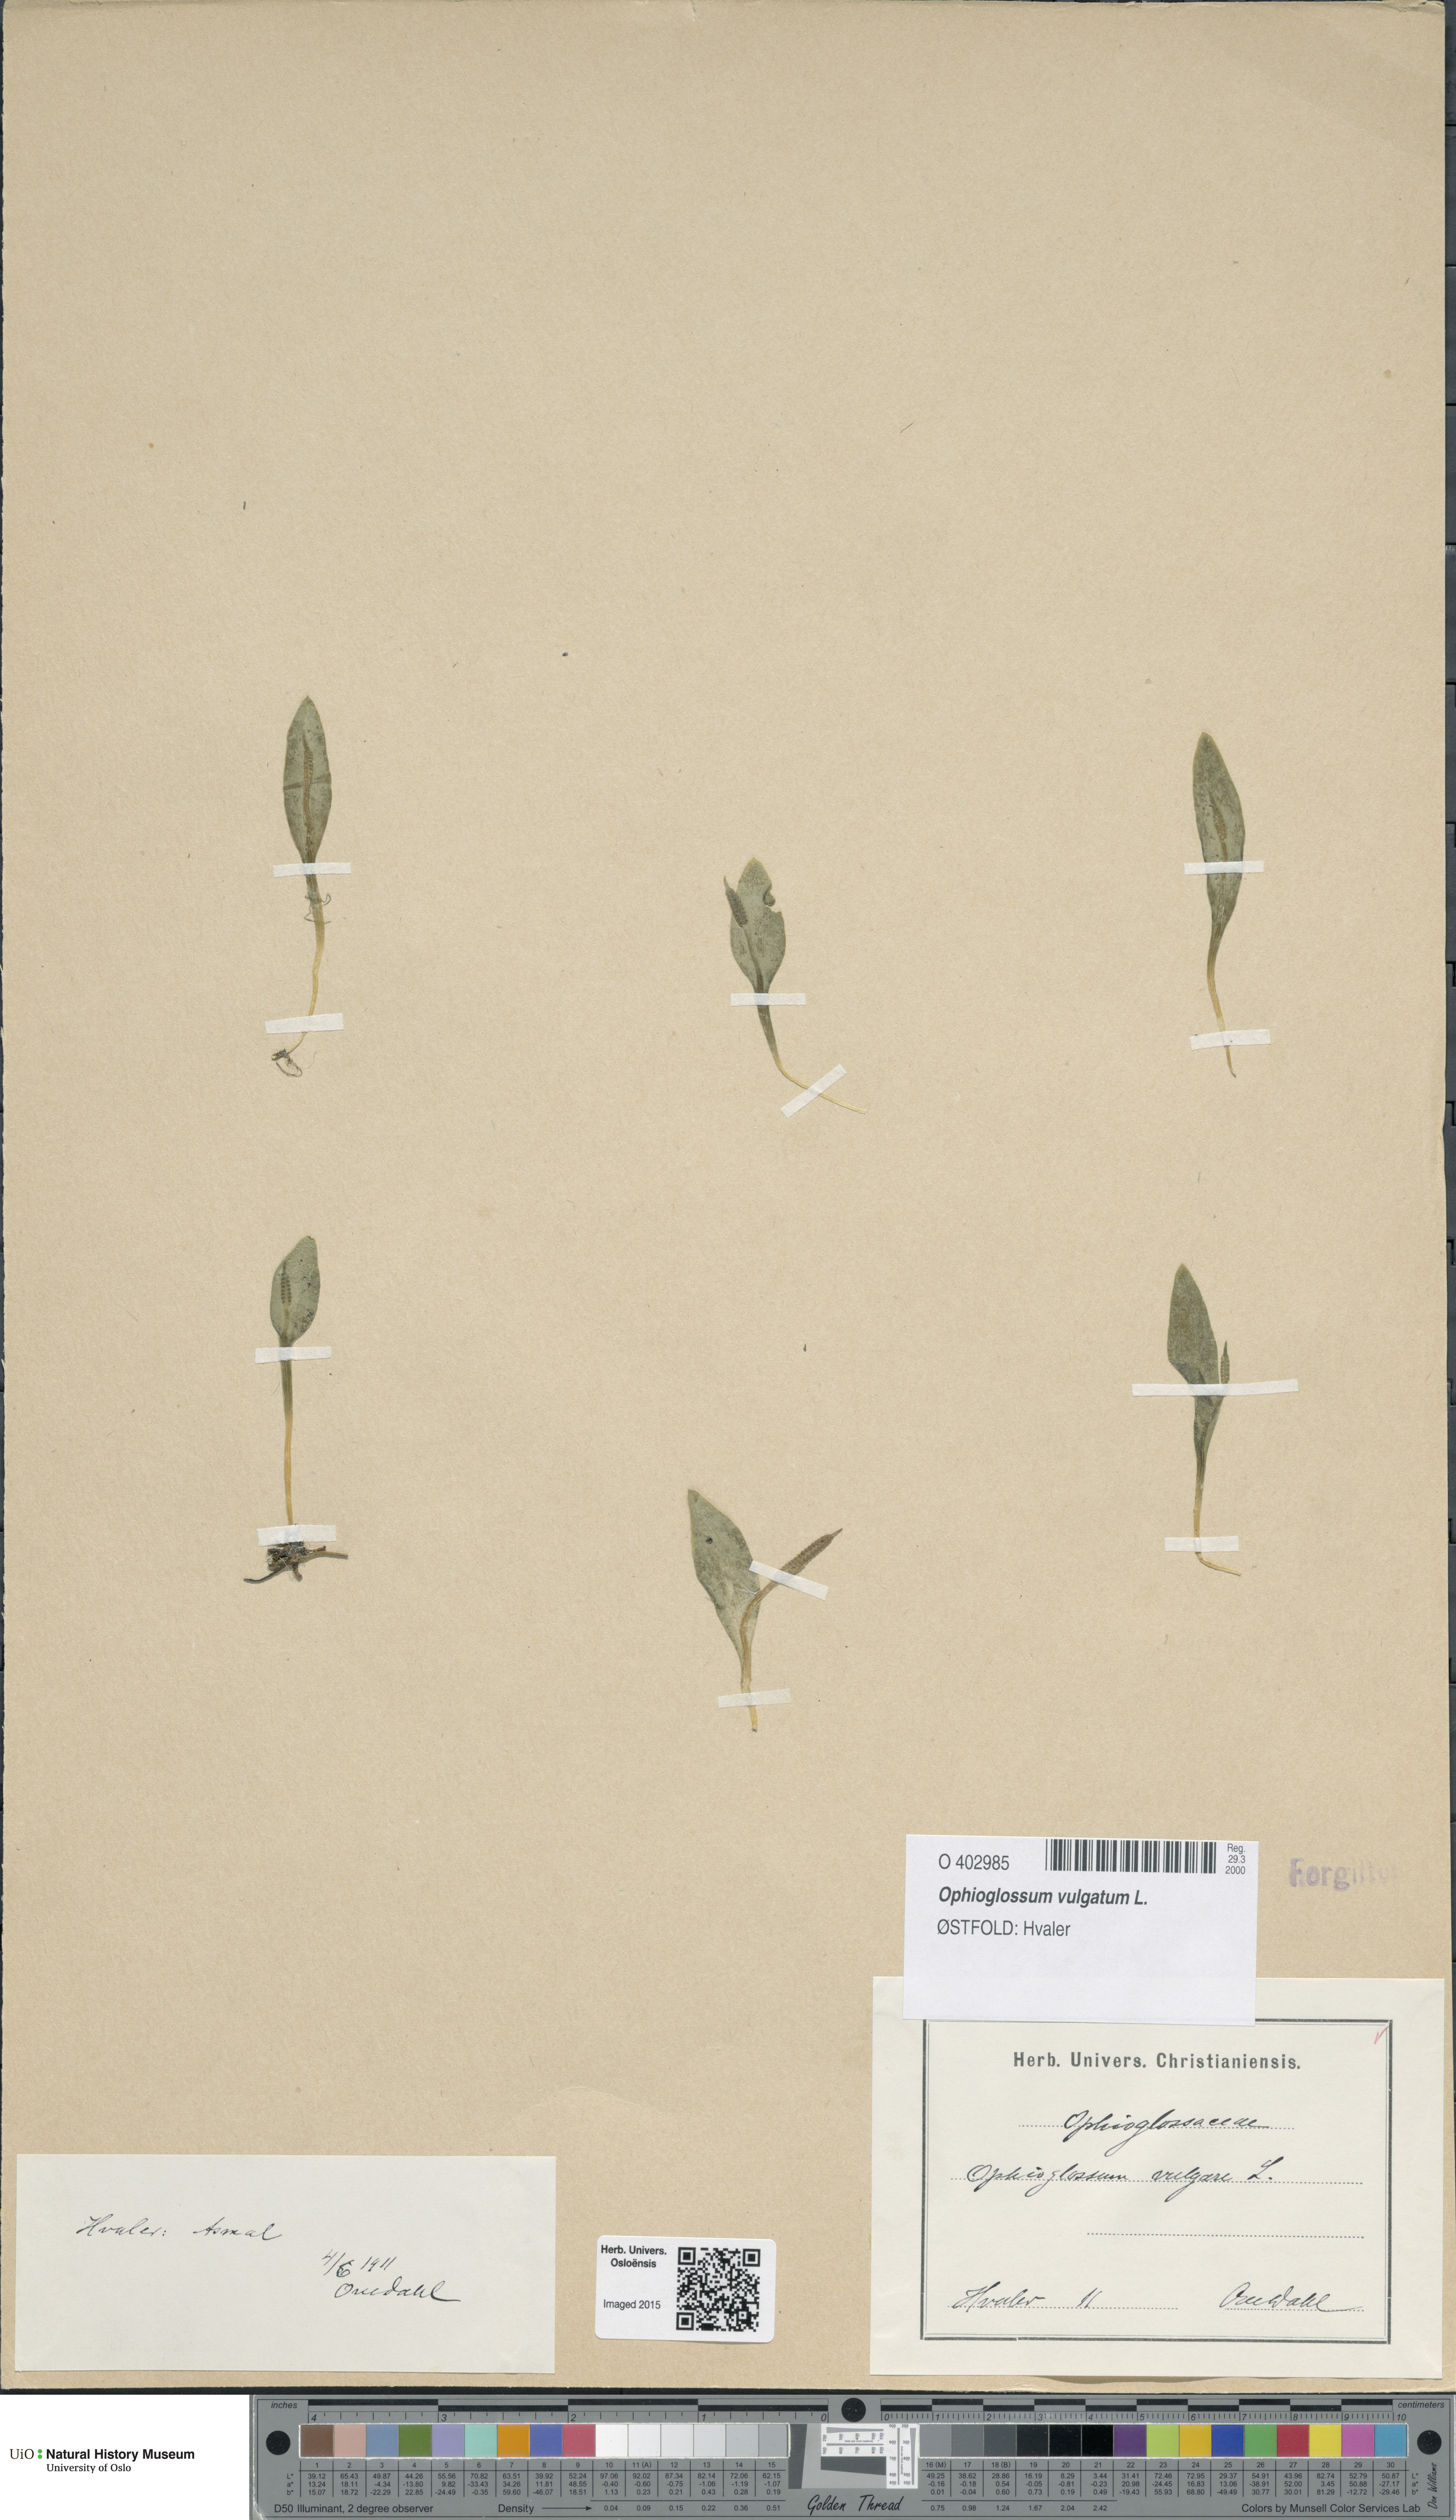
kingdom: Plantae
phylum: Tracheophyta
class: Polypodiopsida
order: Ophioglossales
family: Ophioglossaceae
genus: Ophioglossum
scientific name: Ophioglossum vulgatum
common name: Adder's-tongue
